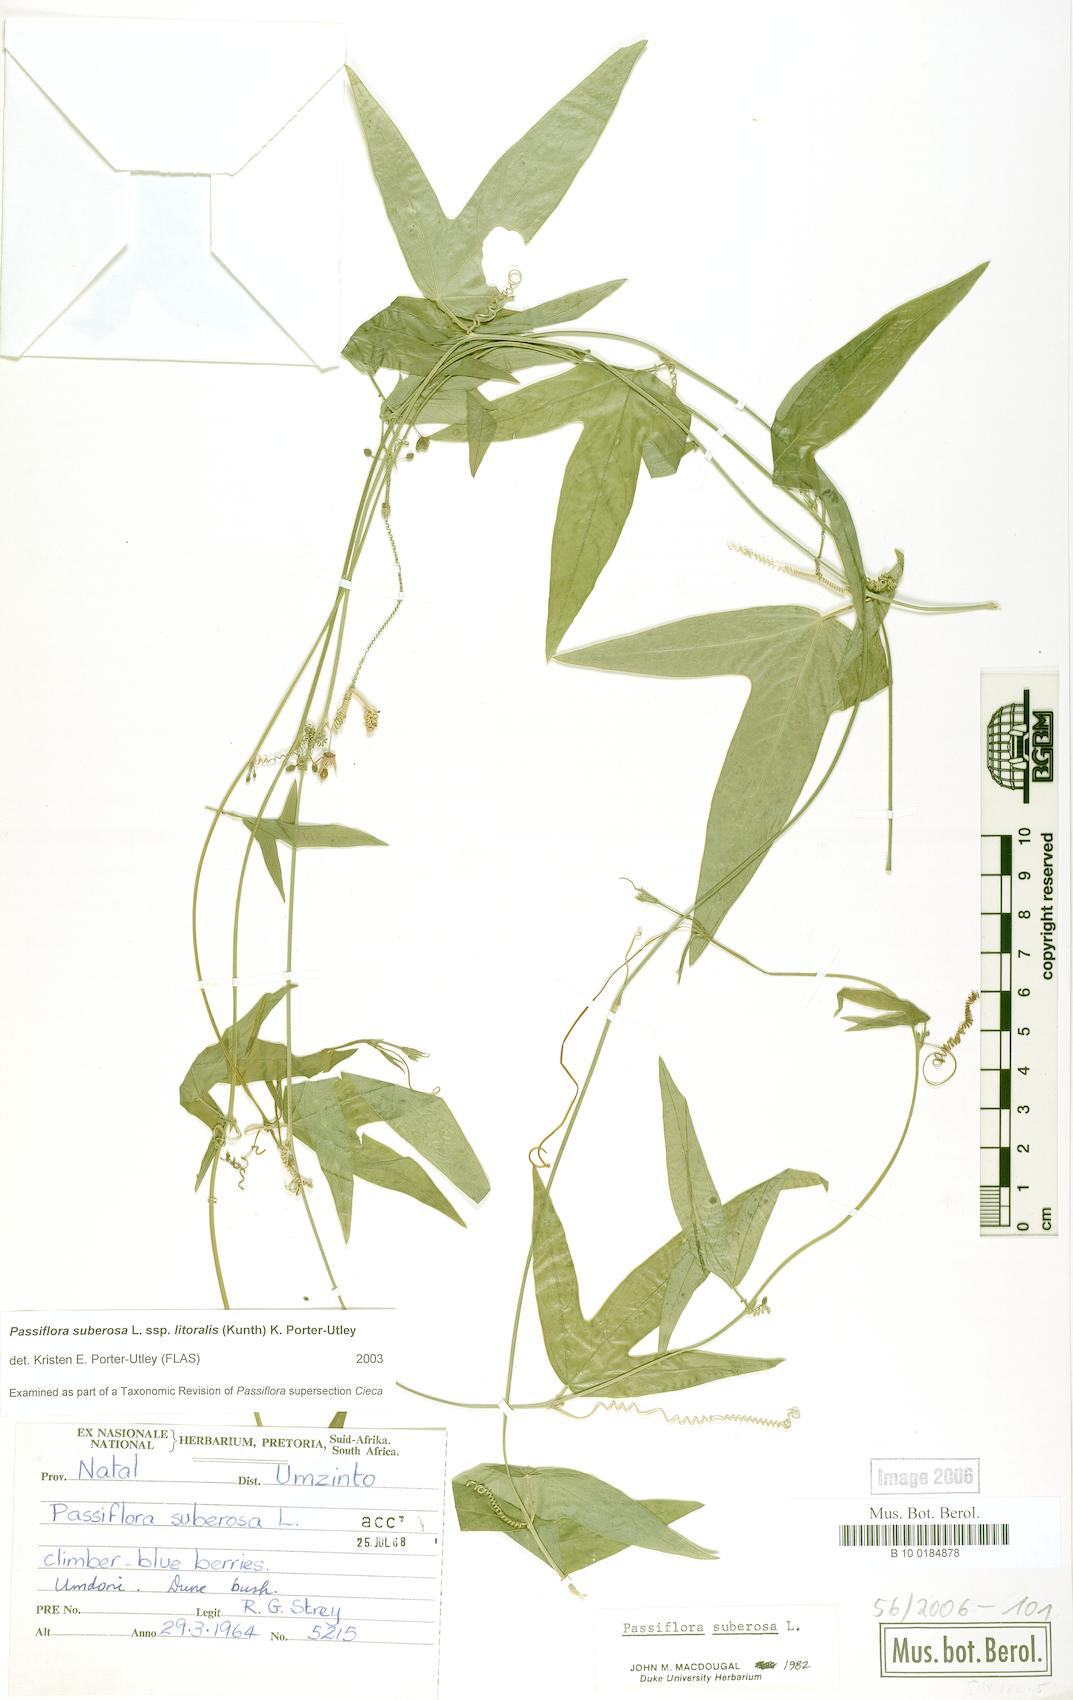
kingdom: Plantae
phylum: Tracheophyta
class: Magnoliopsida
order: Malpighiales
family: Passifloraceae
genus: Passiflora
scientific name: Passiflora suberosa
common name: Wild passionfruit
